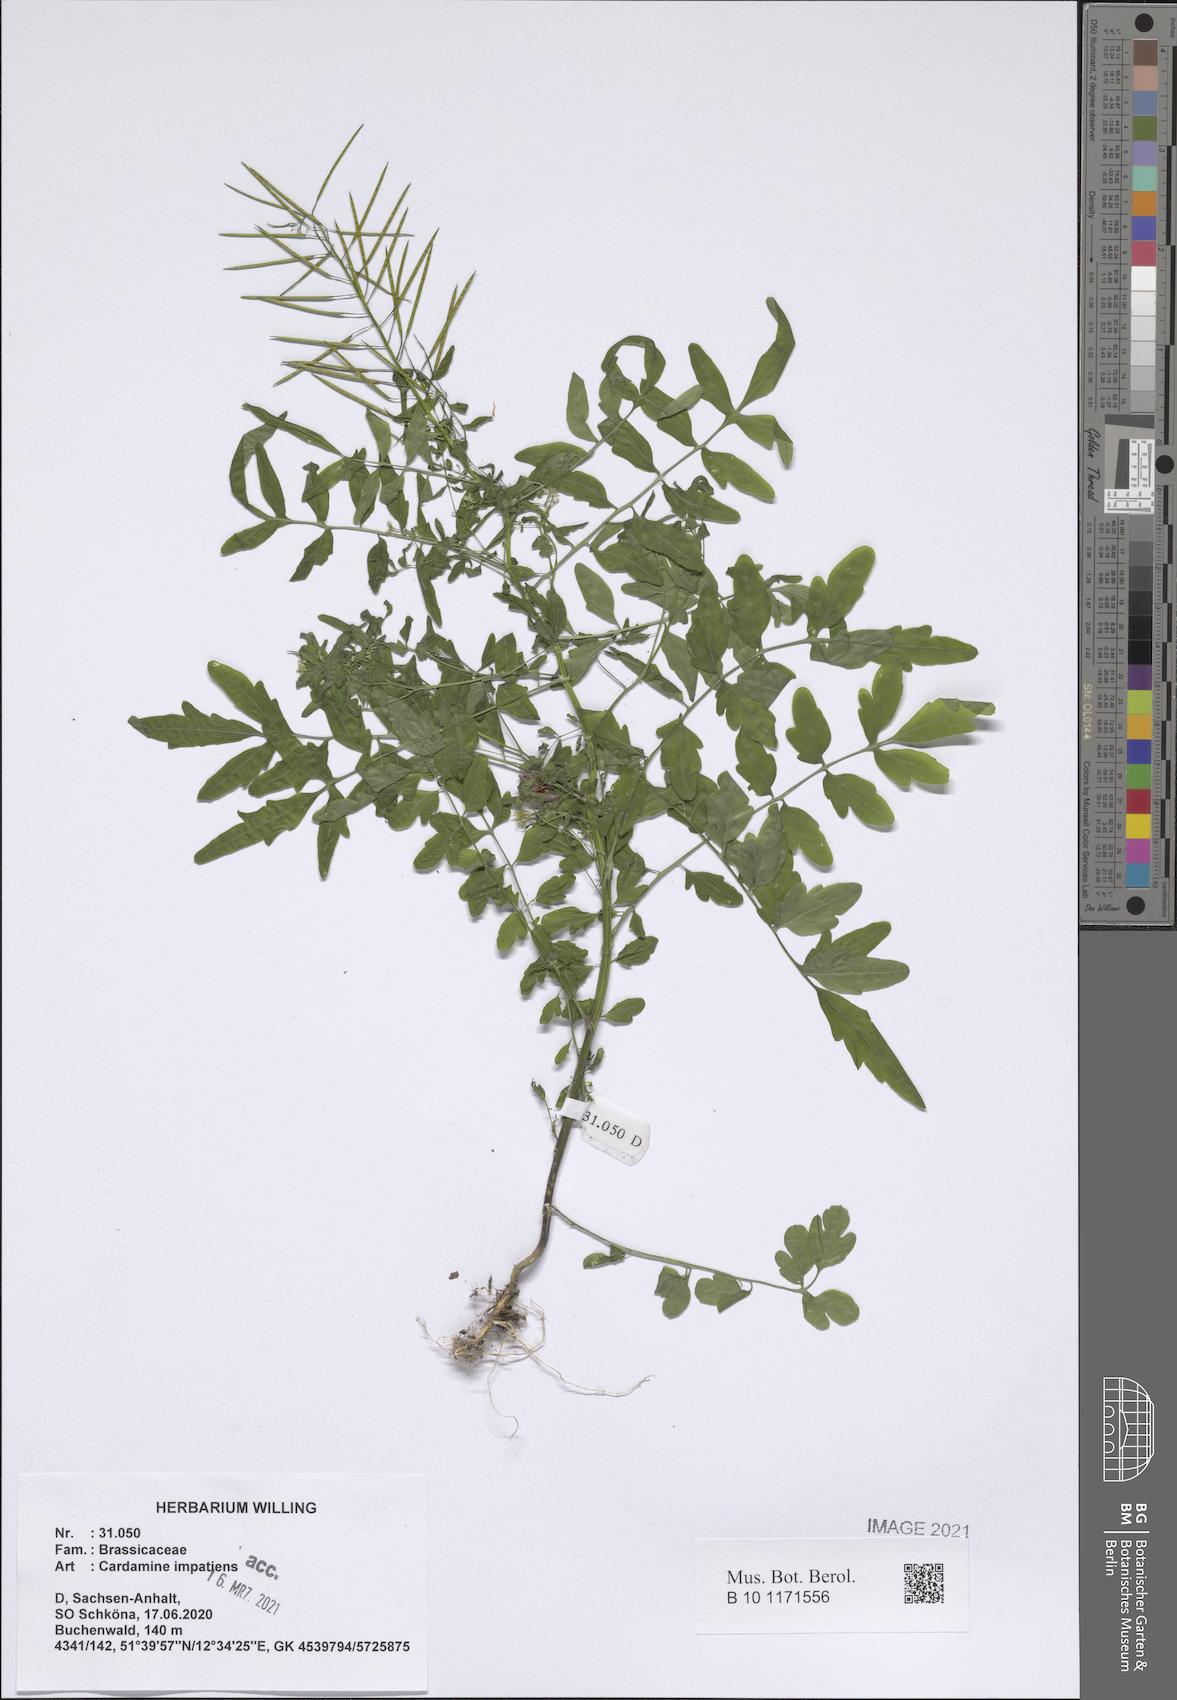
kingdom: Plantae
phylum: Tracheophyta
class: Magnoliopsida
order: Brassicales
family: Brassicaceae
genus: Cardamine
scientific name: Cardamine impatiens
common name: Narrow-leaved bitter-cress
